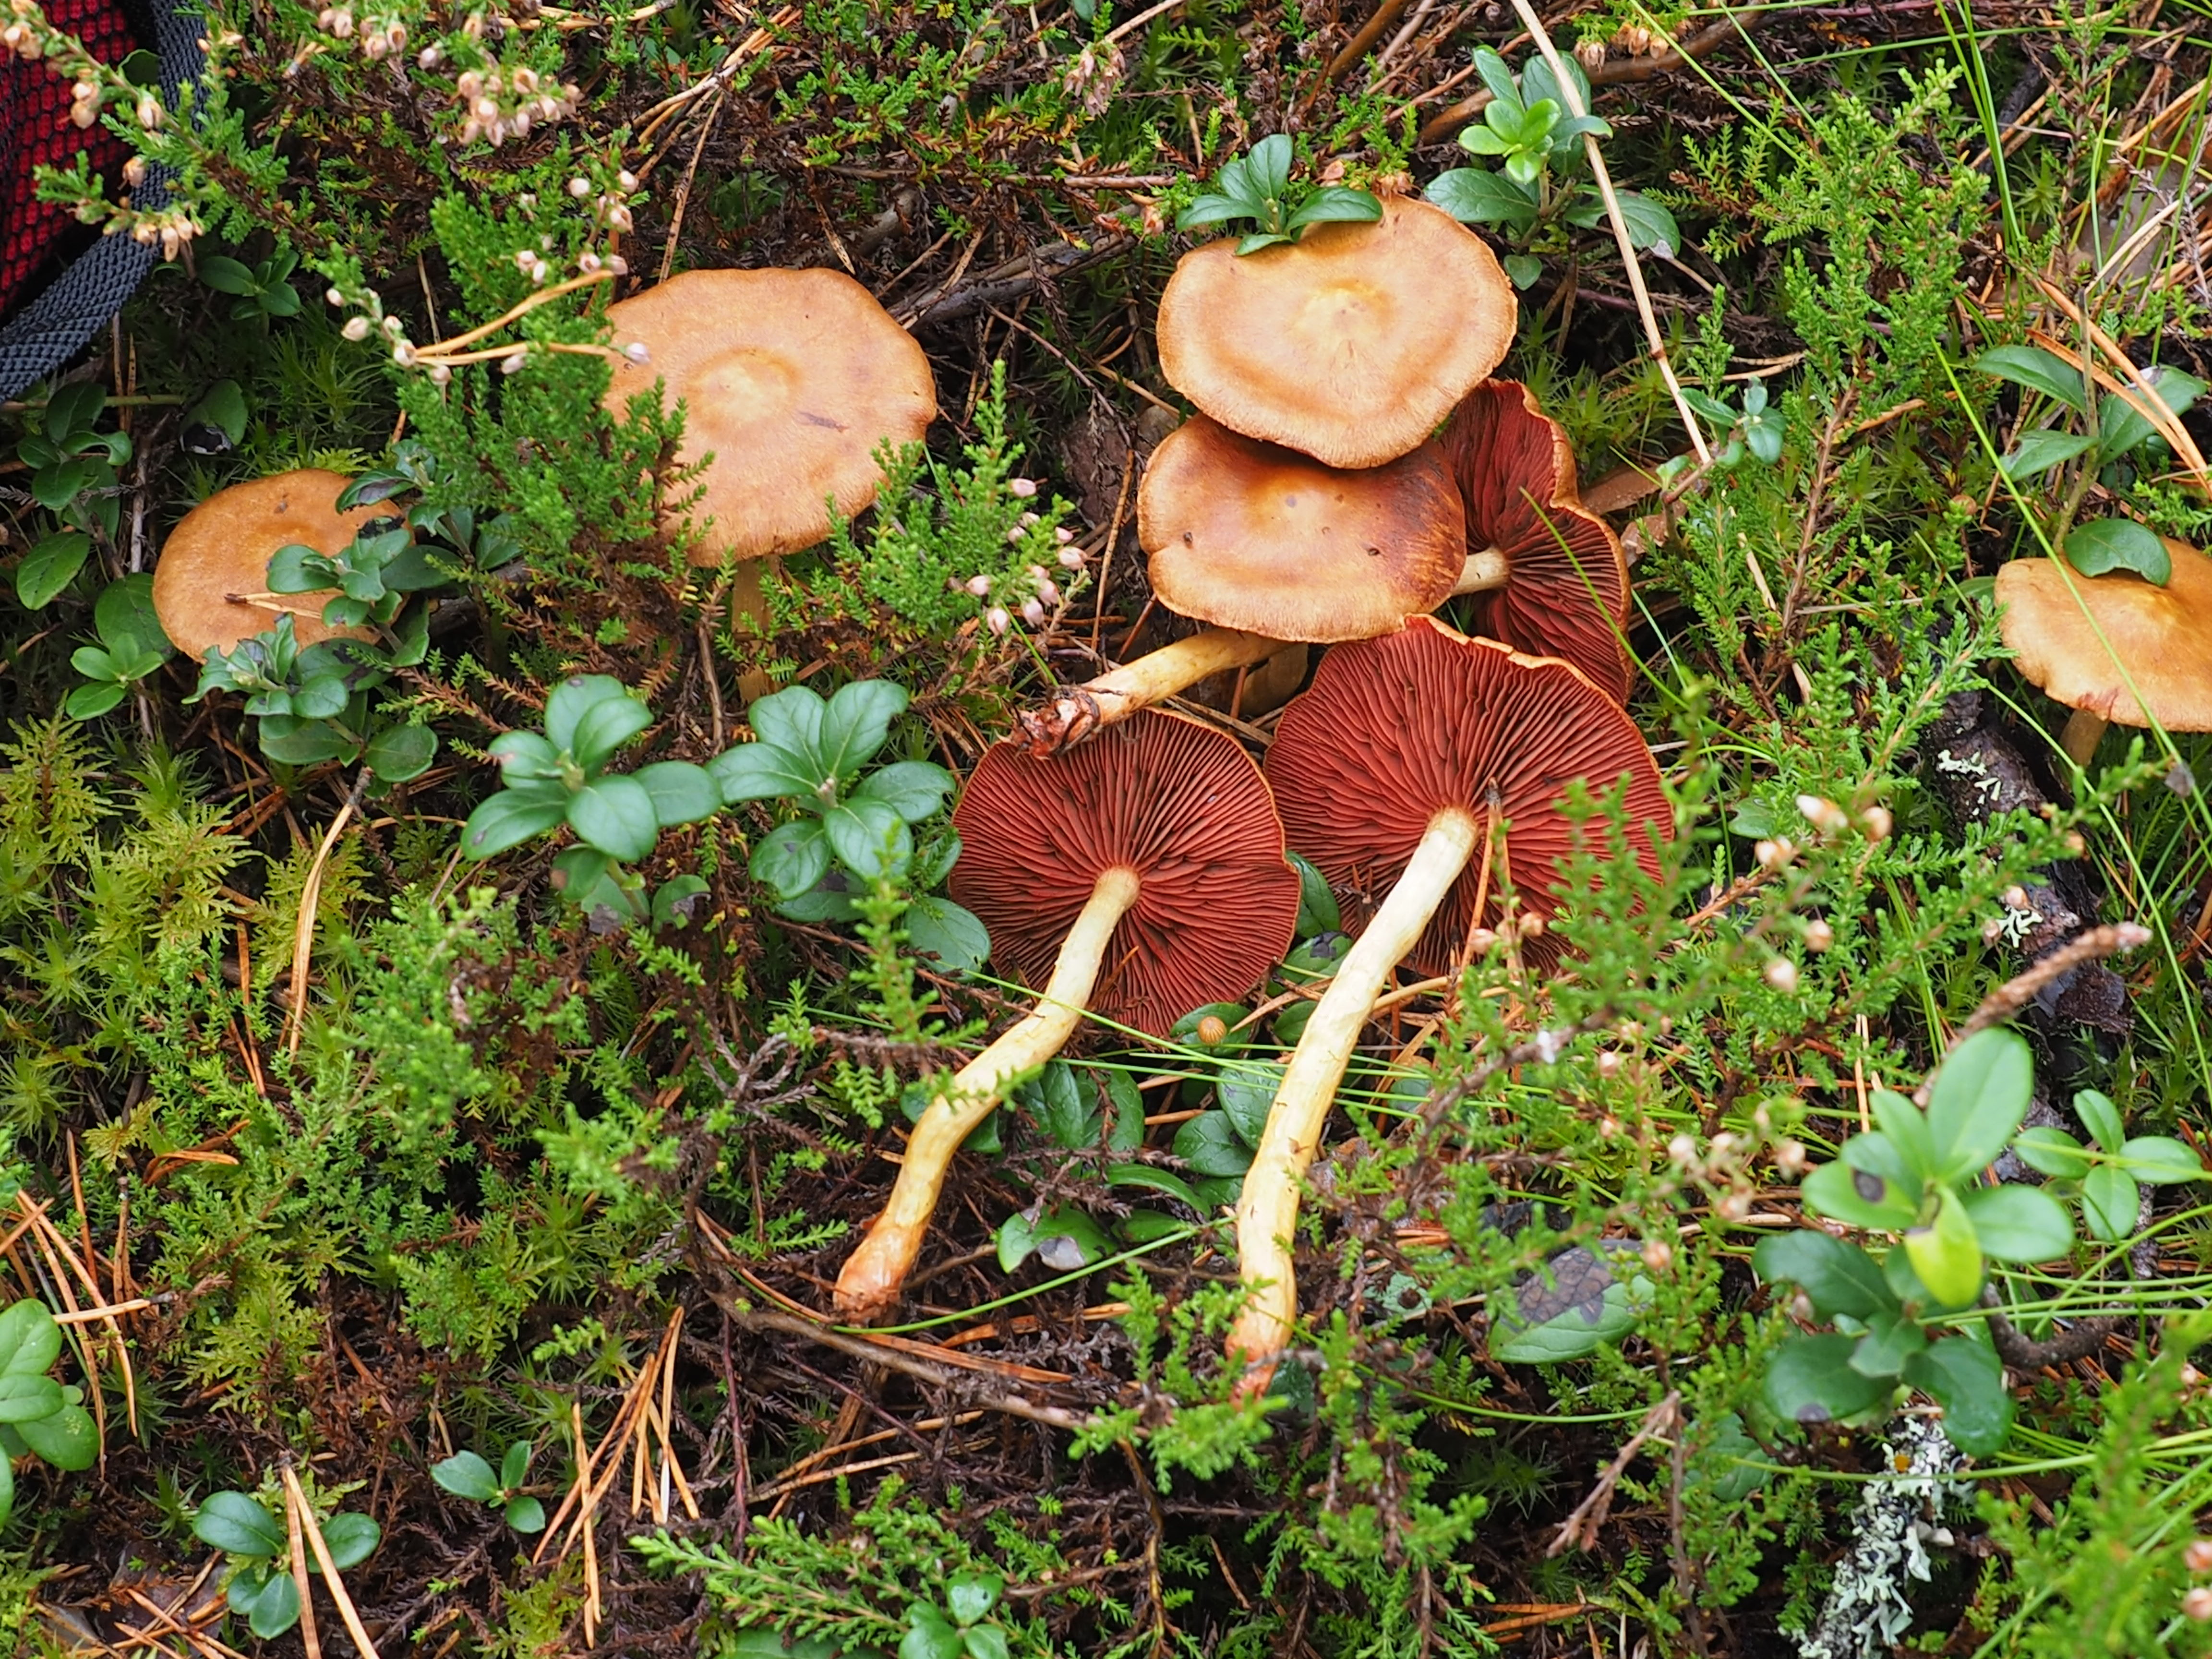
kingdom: Fungi
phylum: Basidiomycota
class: Agaricomycetes
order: Agaricales
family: Cortinariaceae
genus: Cortinarius
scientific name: Cortinarius semisanguineus
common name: Surprise webcap
